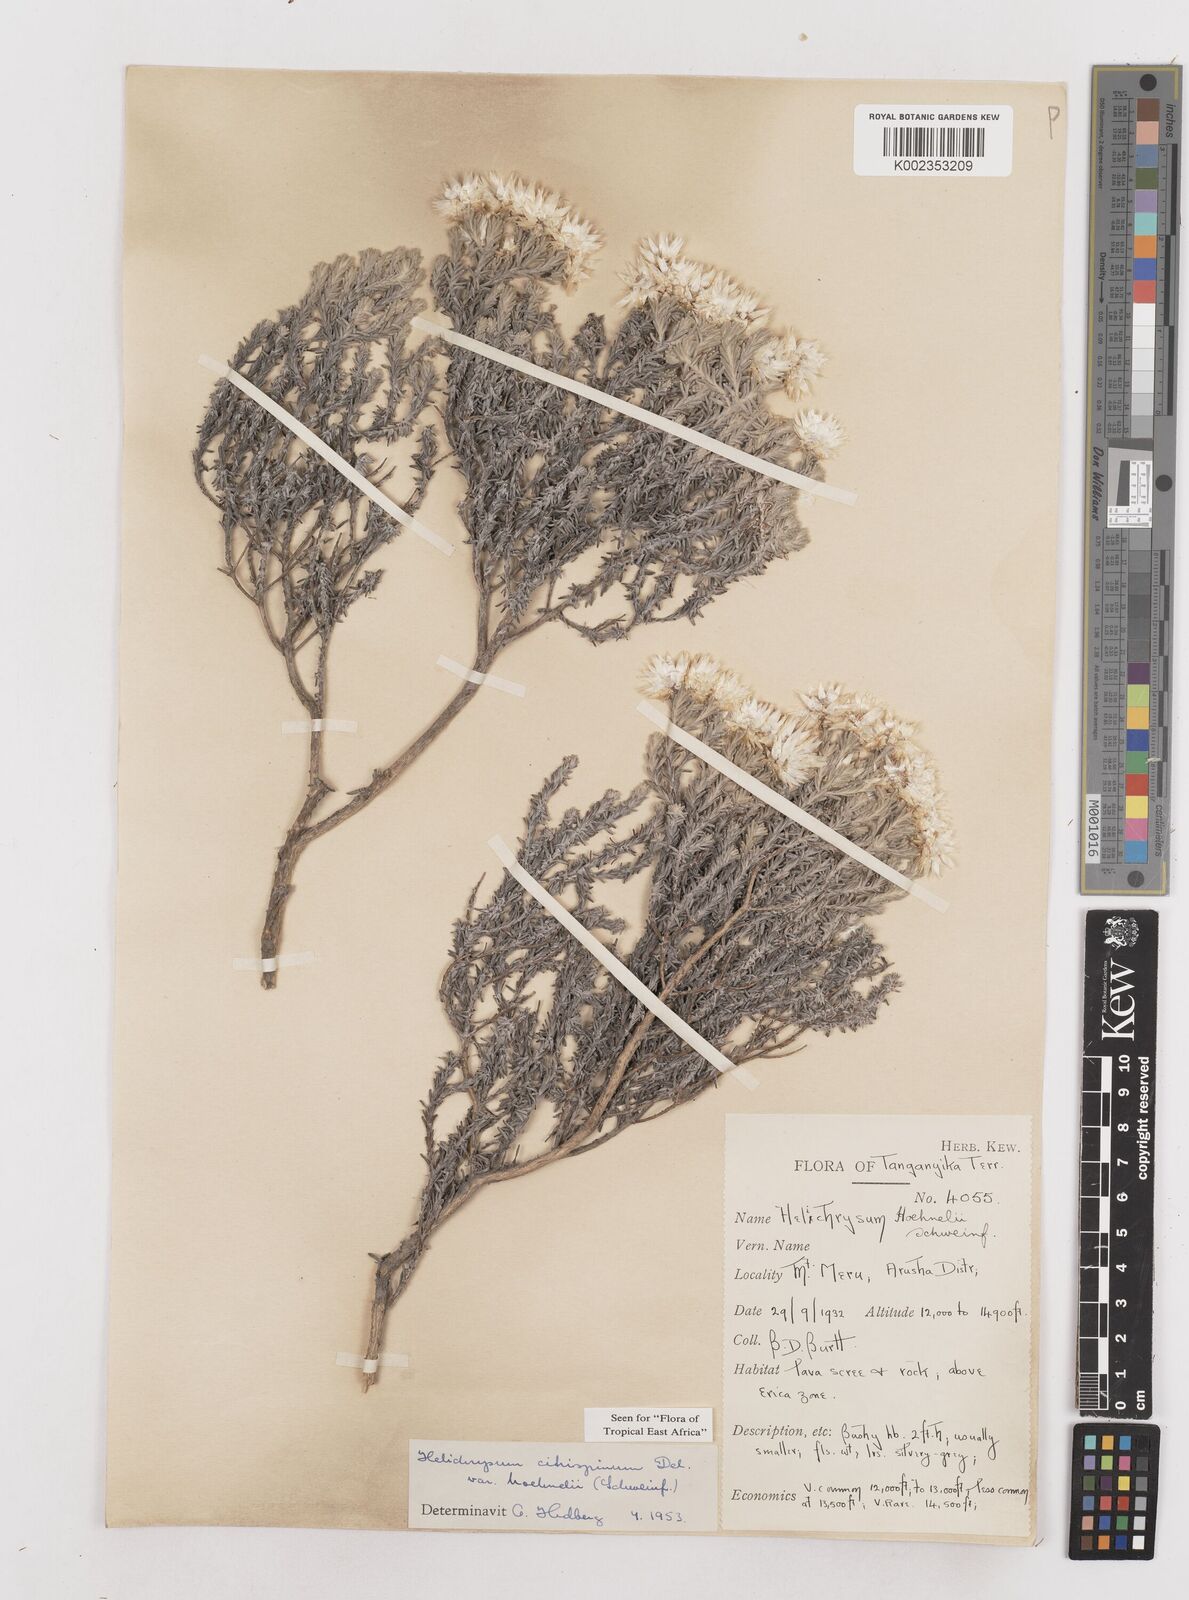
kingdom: Plantae
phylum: Tracheophyta
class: Magnoliopsida
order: Asterales
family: Asteraceae
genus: Helichrysum
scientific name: Helichrysum citrispinum
